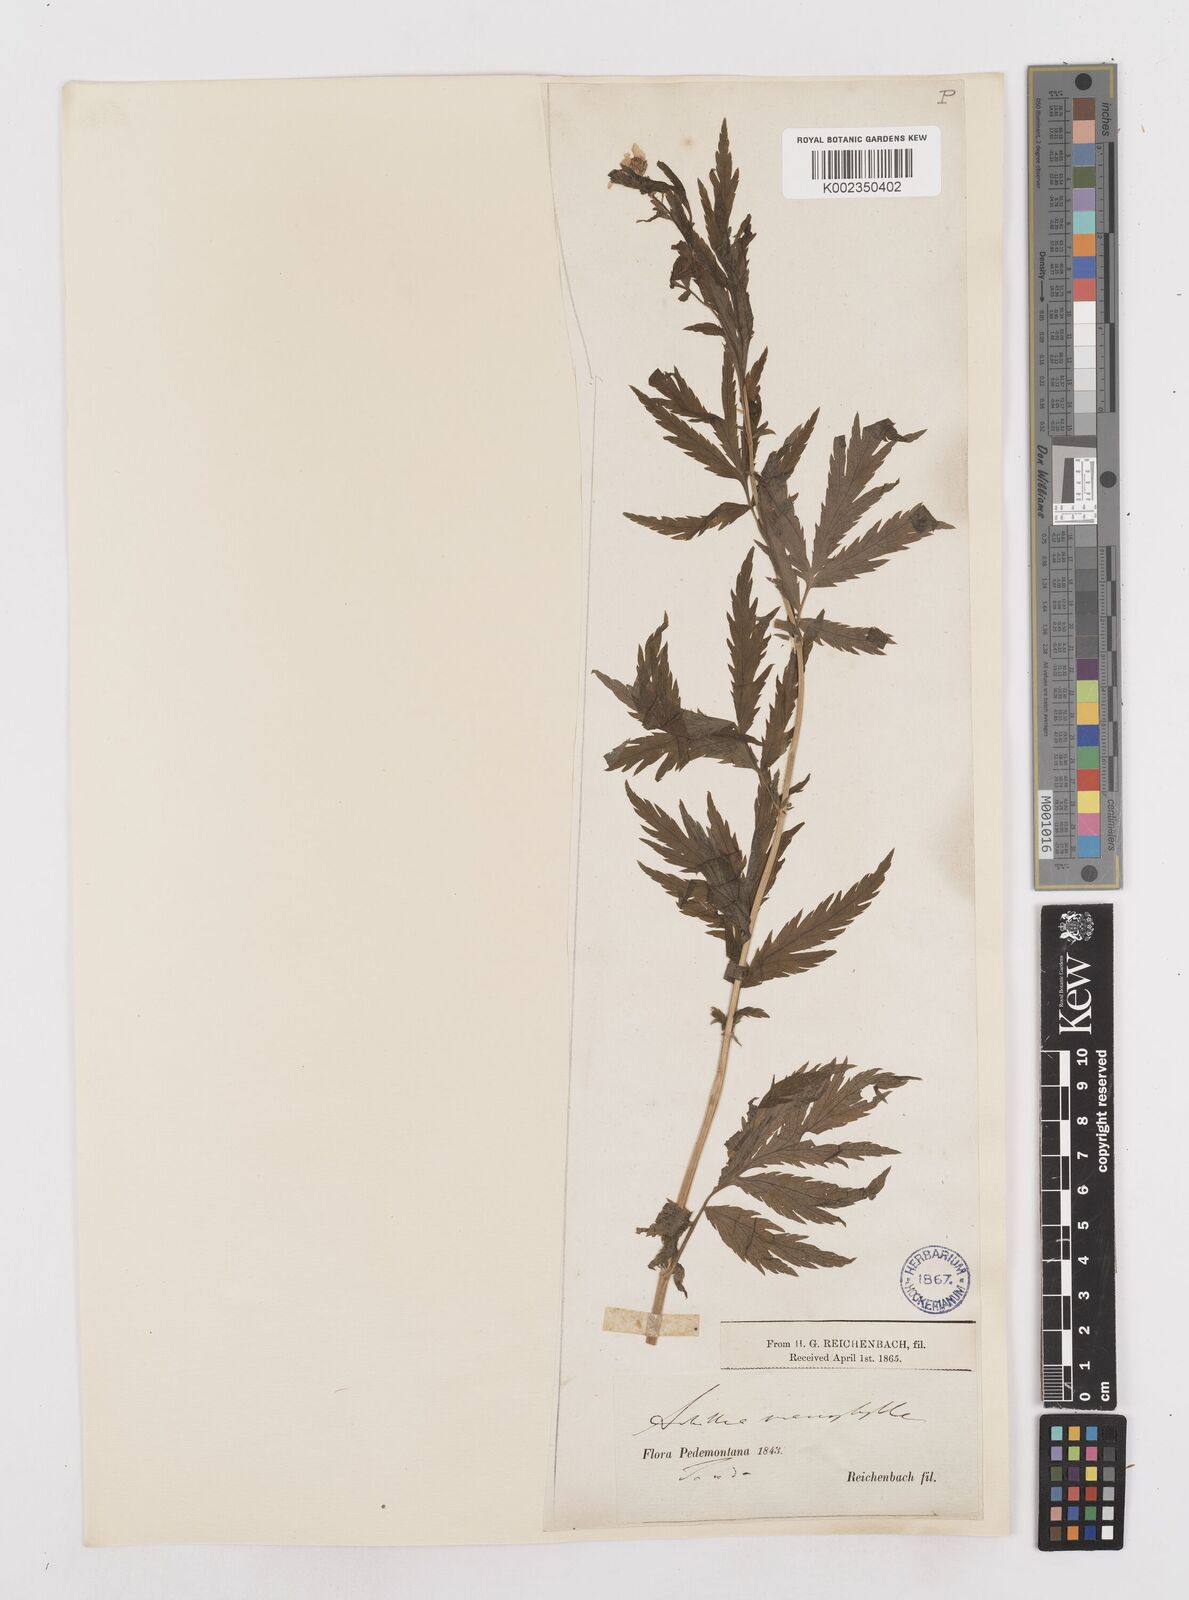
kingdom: Plantae
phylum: Tracheophyta
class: Magnoliopsida
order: Asterales
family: Asteraceae
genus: Achillea
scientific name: Achillea macrophylla
